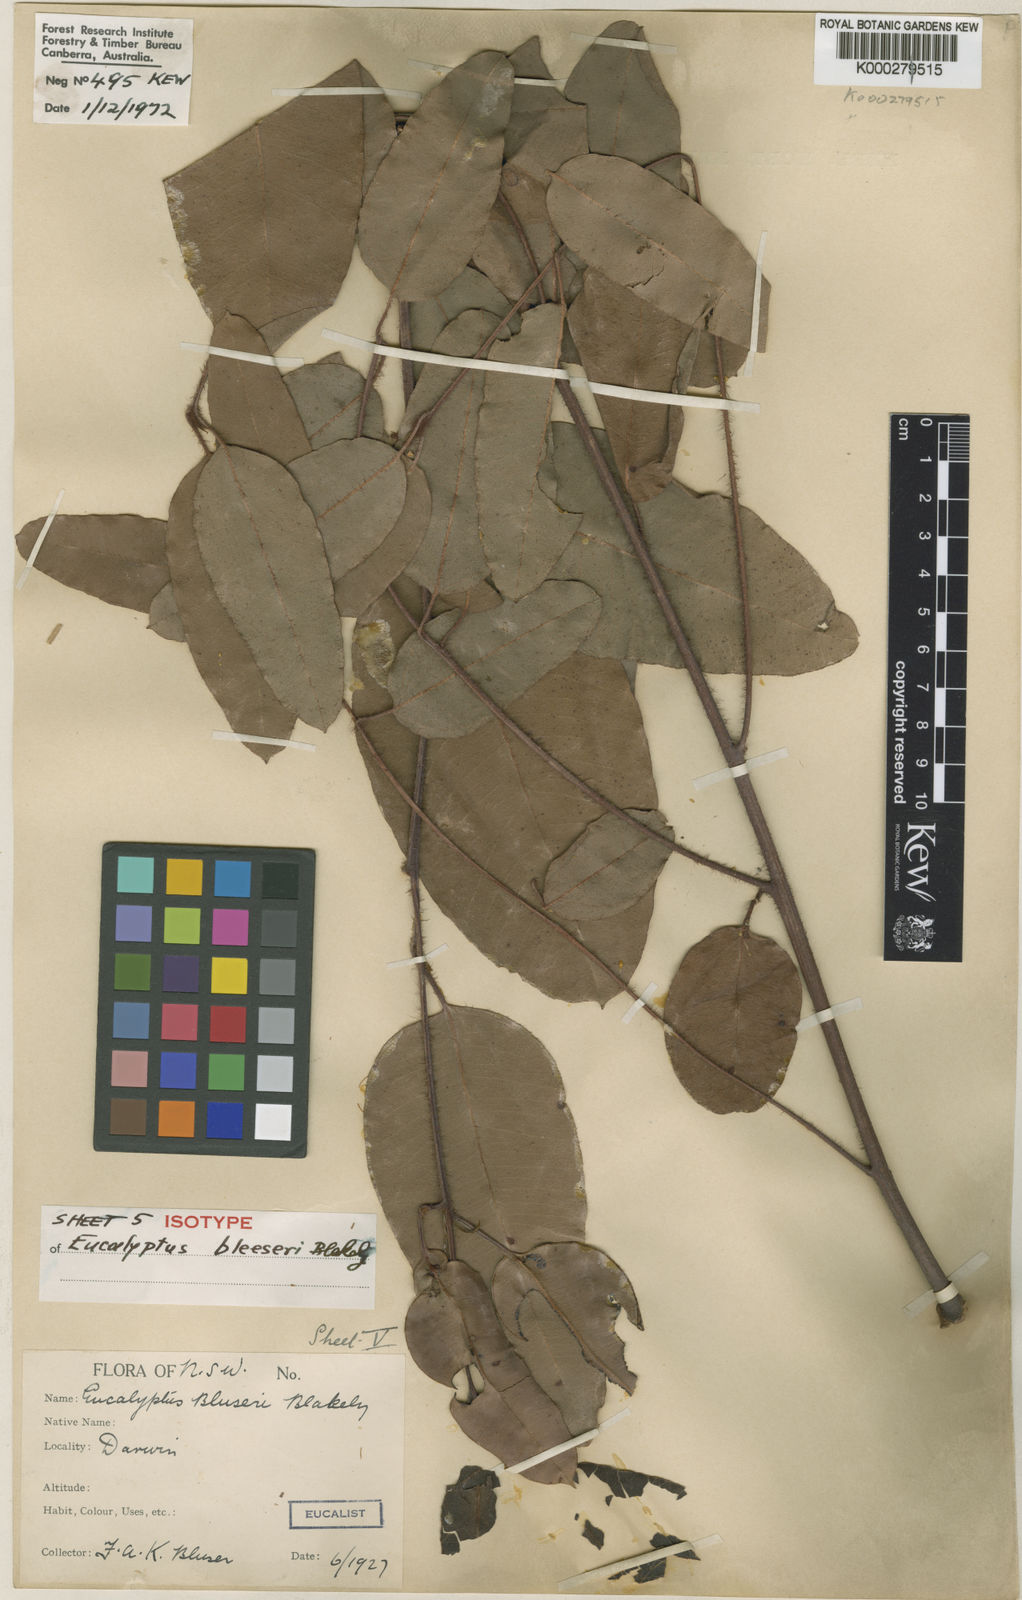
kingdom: Plantae
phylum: Tracheophyta
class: Magnoliopsida
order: Myrtales
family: Myrtaceae
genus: Corymbia
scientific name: Corymbia bleeseri
